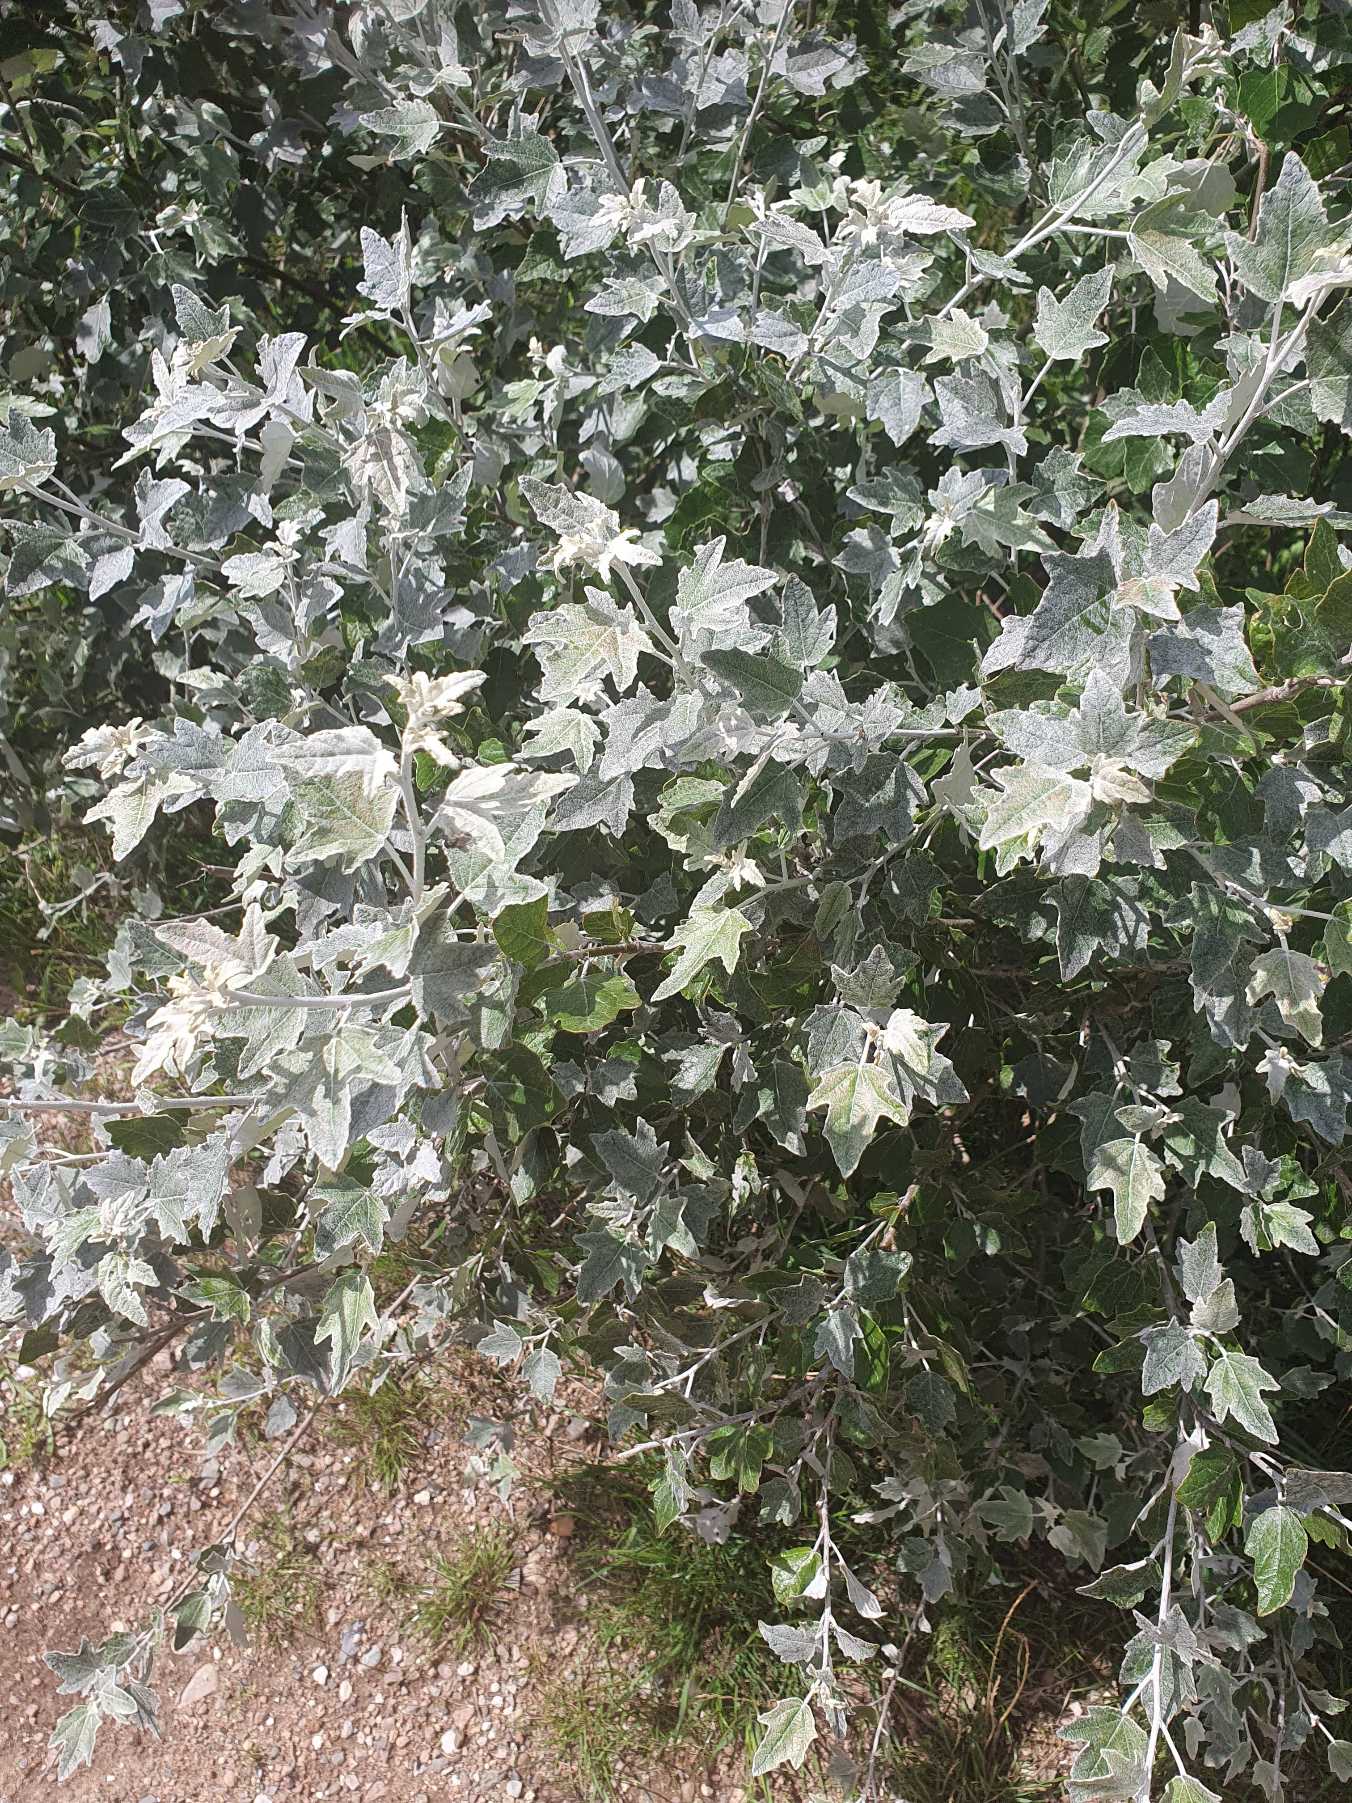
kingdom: Plantae
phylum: Tracheophyta
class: Magnoliopsida
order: Malpighiales
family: Salicaceae
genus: Populus
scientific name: Populus alba
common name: Sølv-poppel
